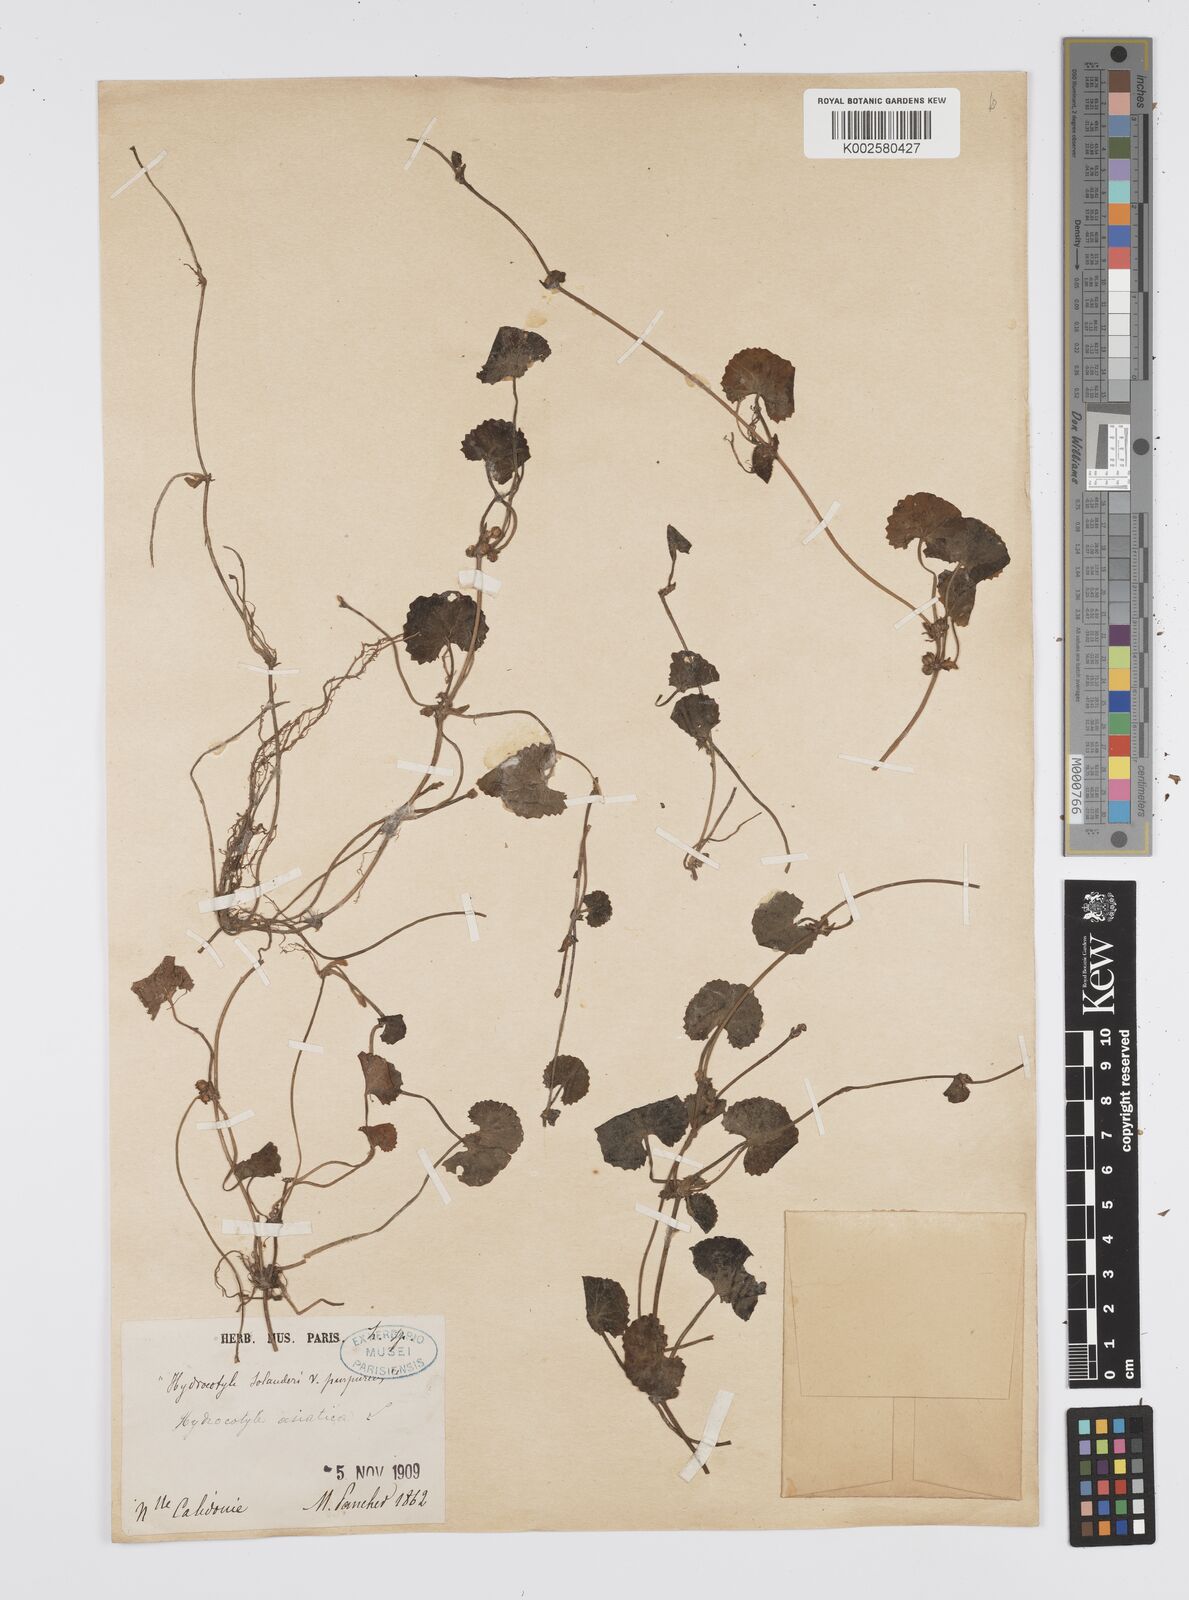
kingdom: Plantae
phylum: Tracheophyta
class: Magnoliopsida
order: Apiales
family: Apiaceae
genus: Centella
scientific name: Centella asiatica
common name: Spadeleaf
